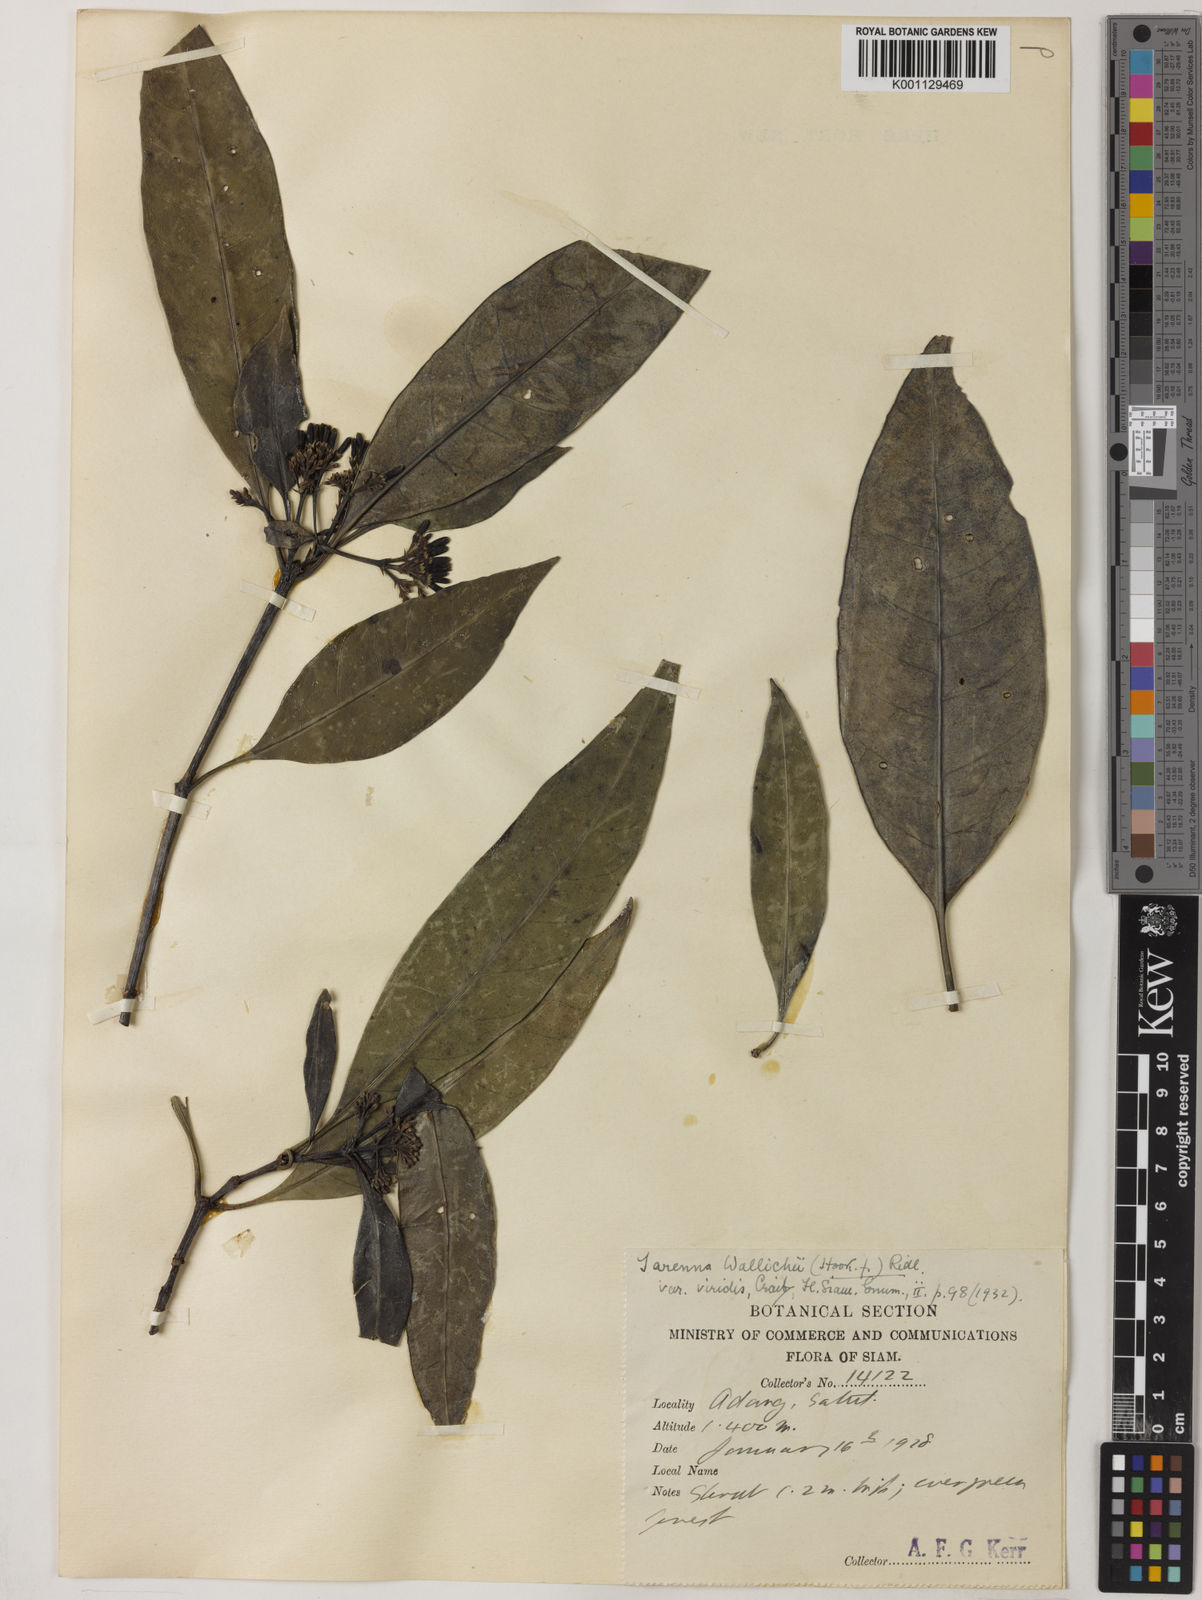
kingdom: Plantae
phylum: Tracheophyta
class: Magnoliopsida
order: Gentianales
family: Rubiaceae
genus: Tarenna
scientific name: Tarenna wallichii
